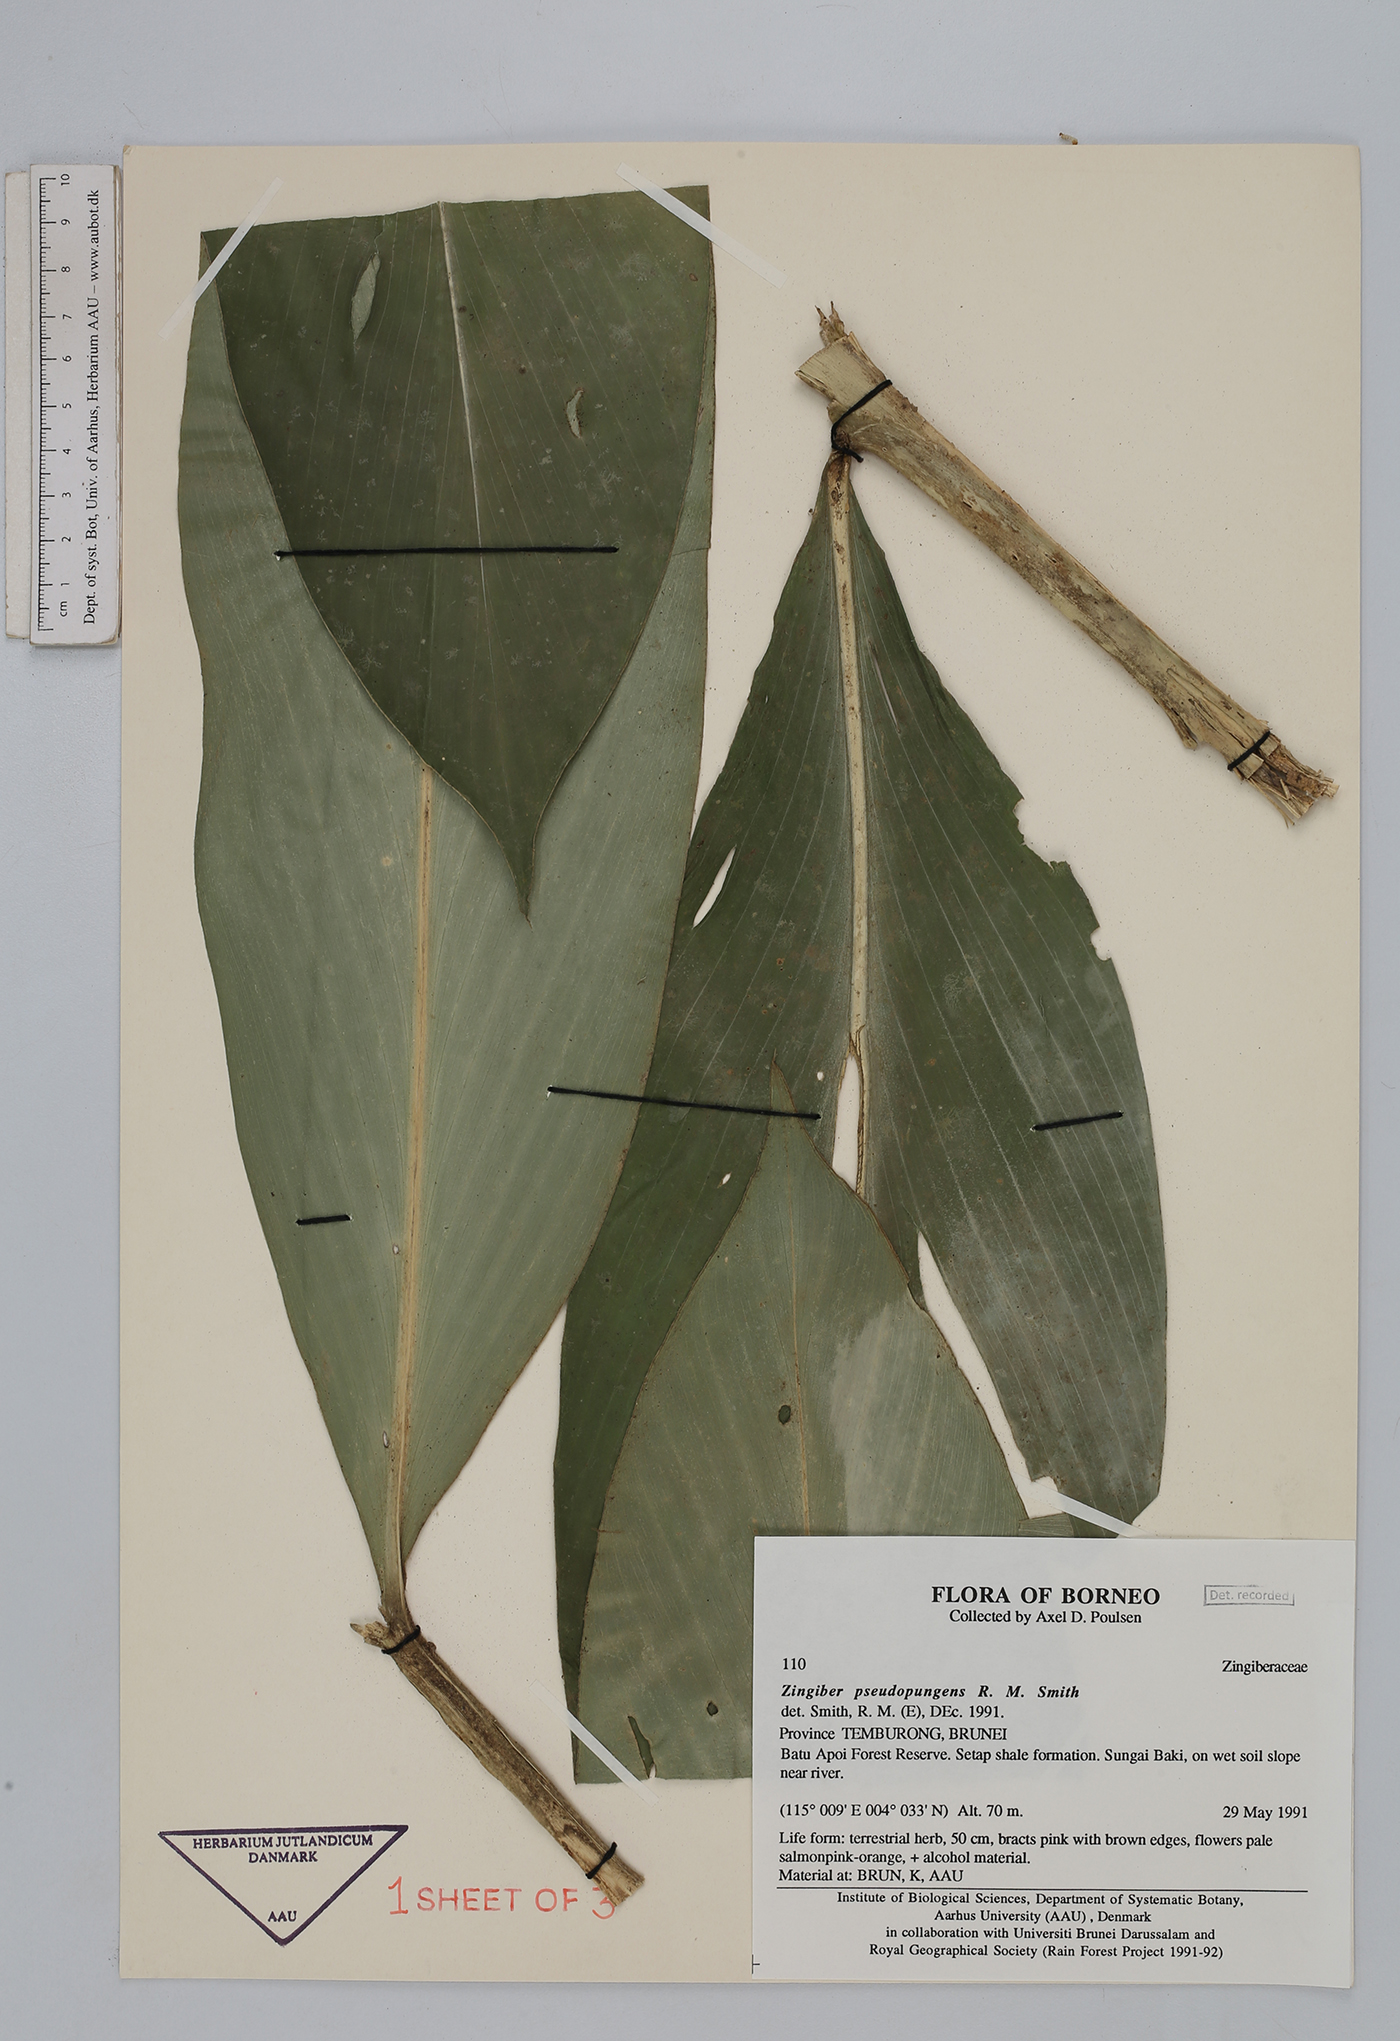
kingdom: Plantae
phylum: Tracheophyta
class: Liliopsida
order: Zingiberales
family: Zingiberaceae
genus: Zingiber
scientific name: Zingiber pseudopungens
